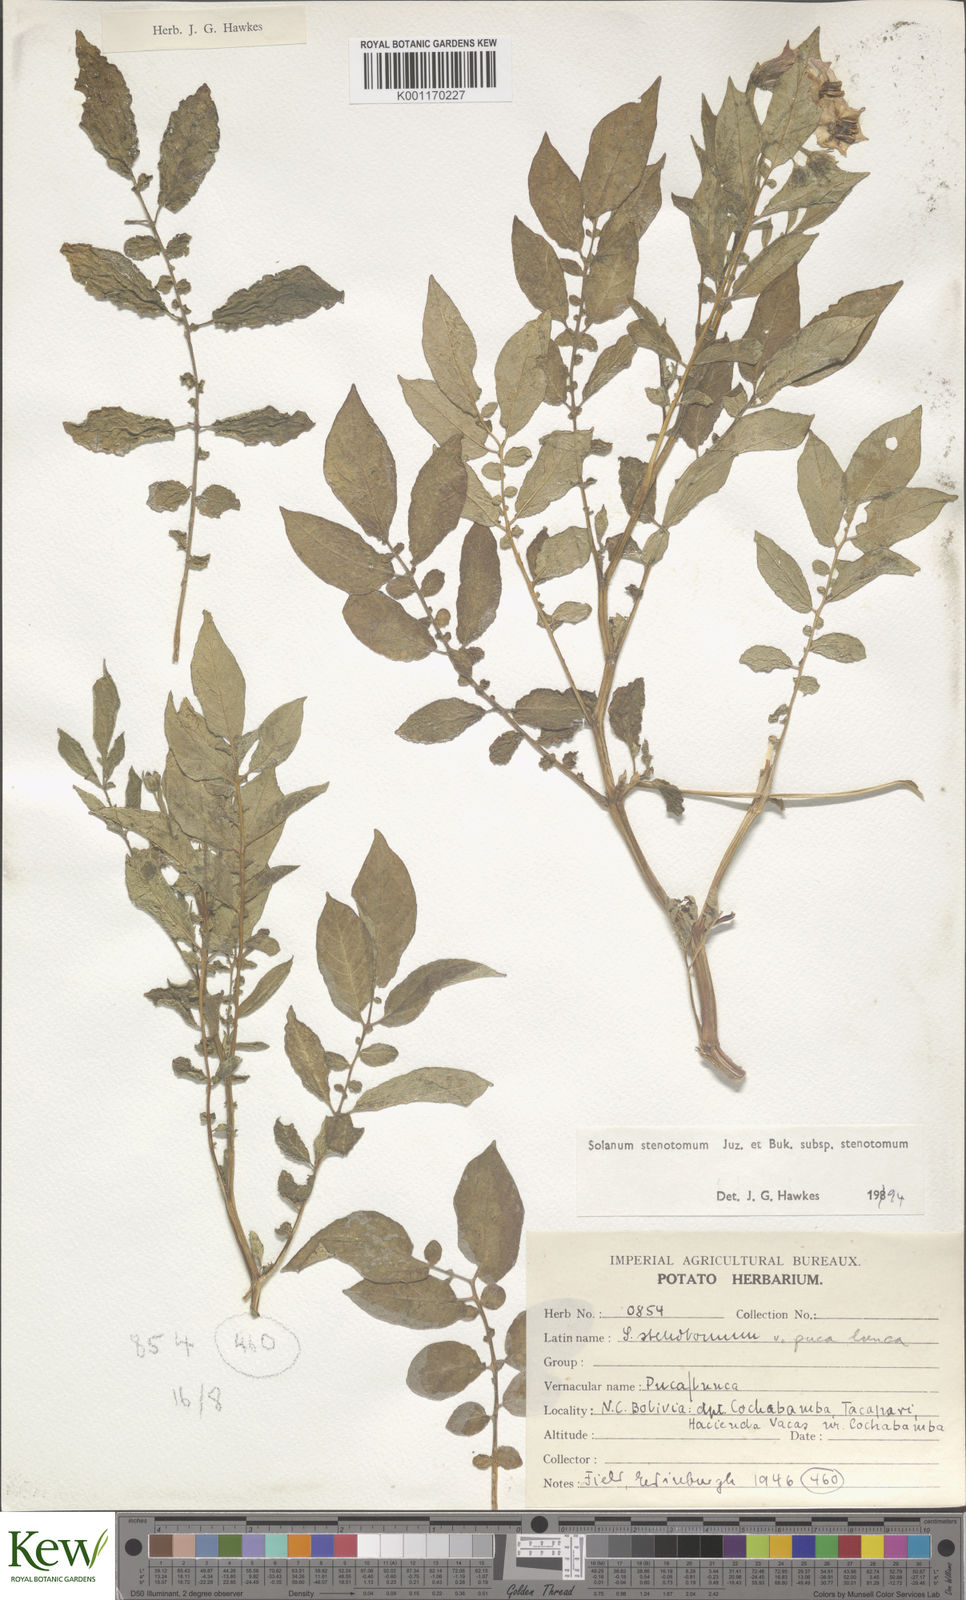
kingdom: Plantae
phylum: Tracheophyta
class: Magnoliopsida
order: Solanales
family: Solanaceae
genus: Solanum
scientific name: Solanum tuberosum
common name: Potato
